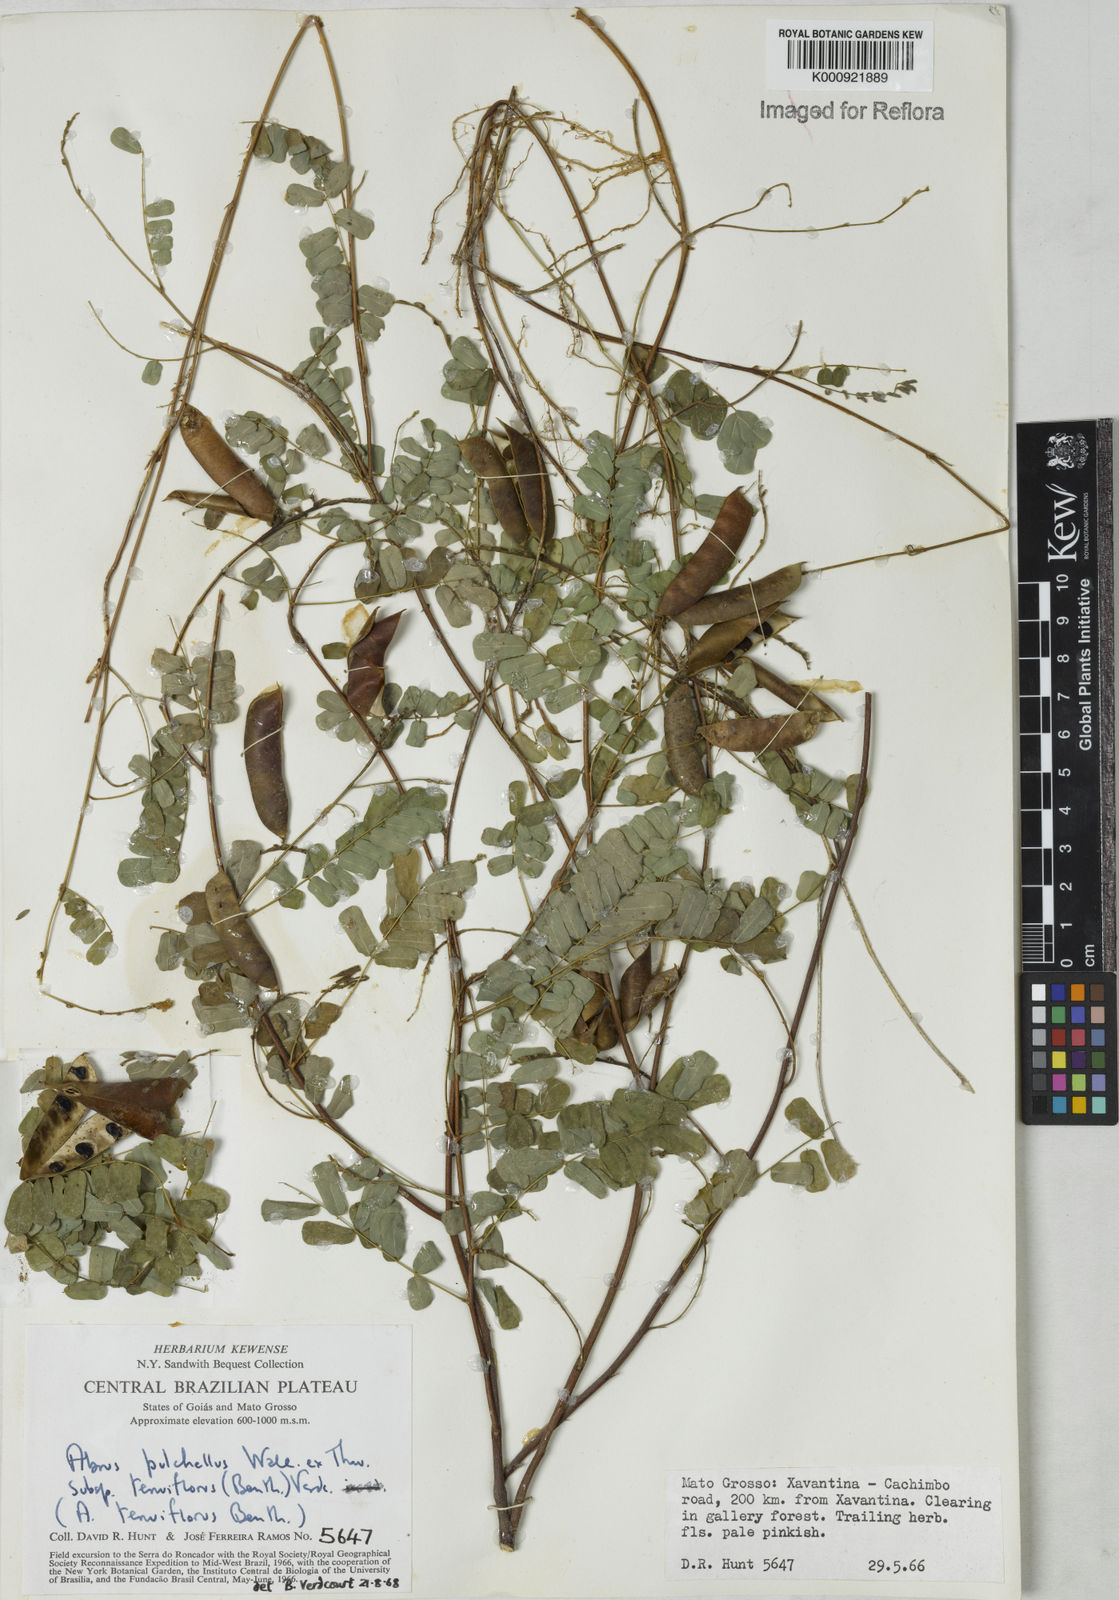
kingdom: Plantae
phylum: Tracheophyta
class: Magnoliopsida
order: Fabales
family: Fabaceae
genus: Abrus
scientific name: Abrus melanospermus
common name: Licorice-root
